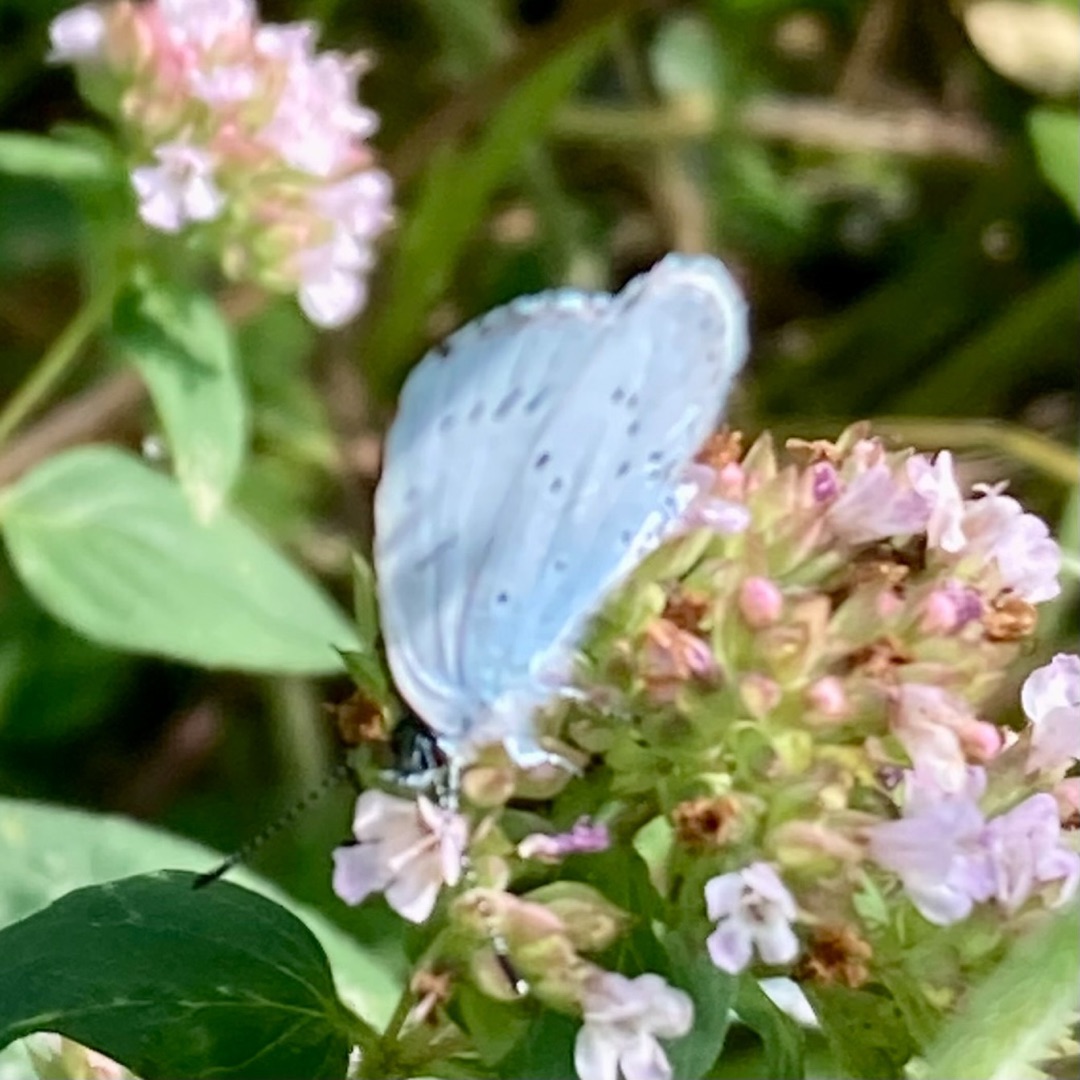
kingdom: Animalia
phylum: Arthropoda
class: Insecta
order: Lepidoptera
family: Lycaenidae
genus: Celastrina
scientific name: Celastrina argiolus
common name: Skovblåfugl
